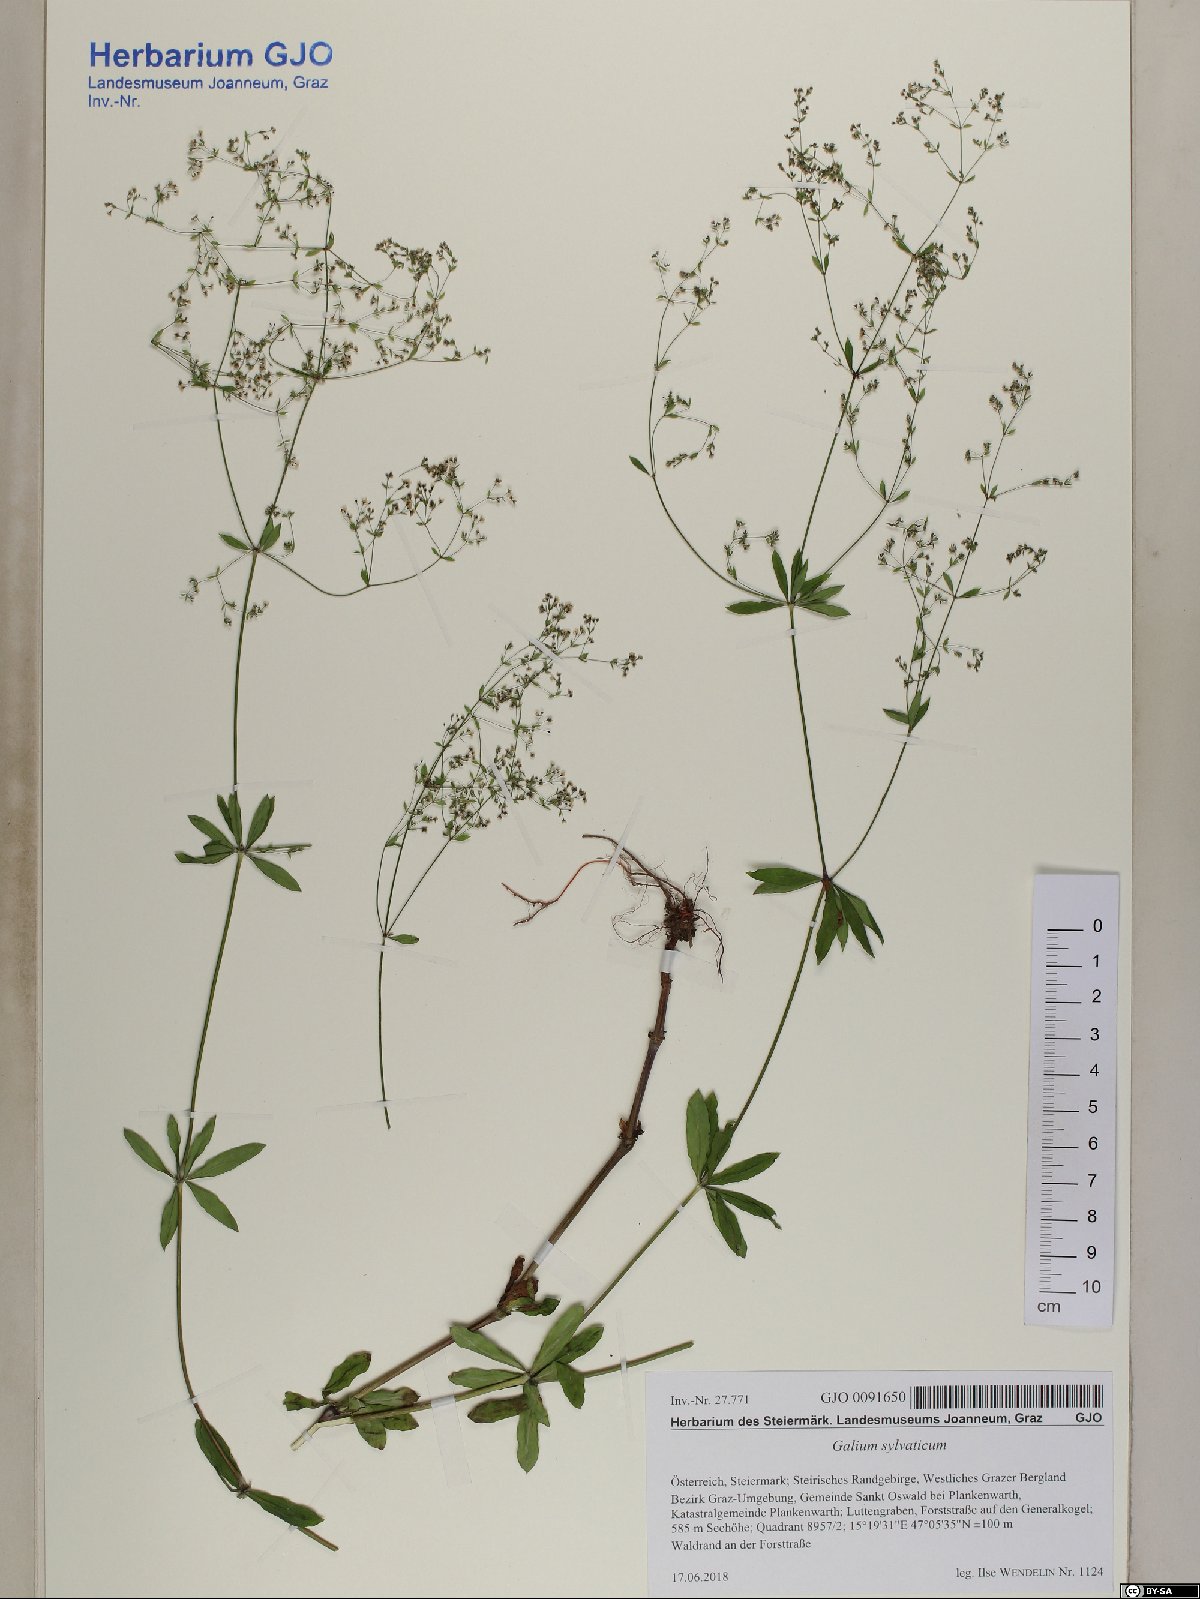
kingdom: Plantae
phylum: Tracheophyta
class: Magnoliopsida
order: Gentianales
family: Rubiaceae
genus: Galium
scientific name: Galium sylvaticum
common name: Wood bedstraw
